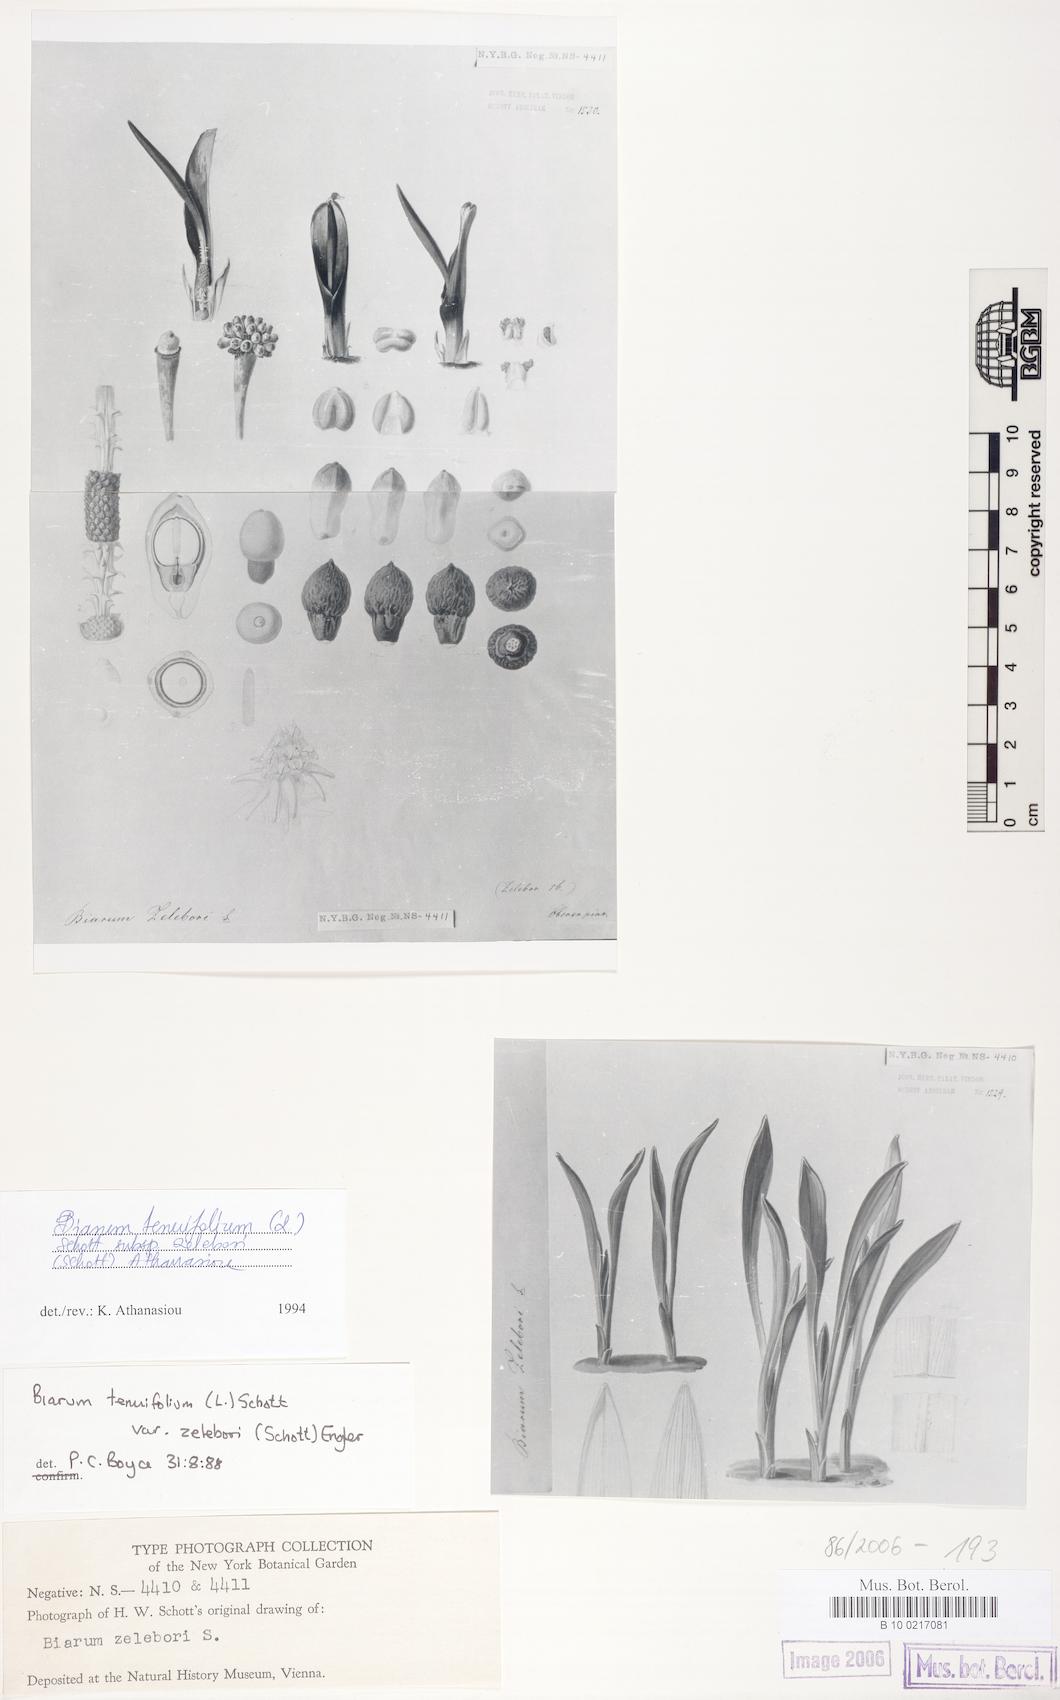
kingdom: Plantae
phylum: Tracheophyta
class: Liliopsida
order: Alismatales
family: Araceae
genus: Biarum
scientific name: Biarum tenuifolium
